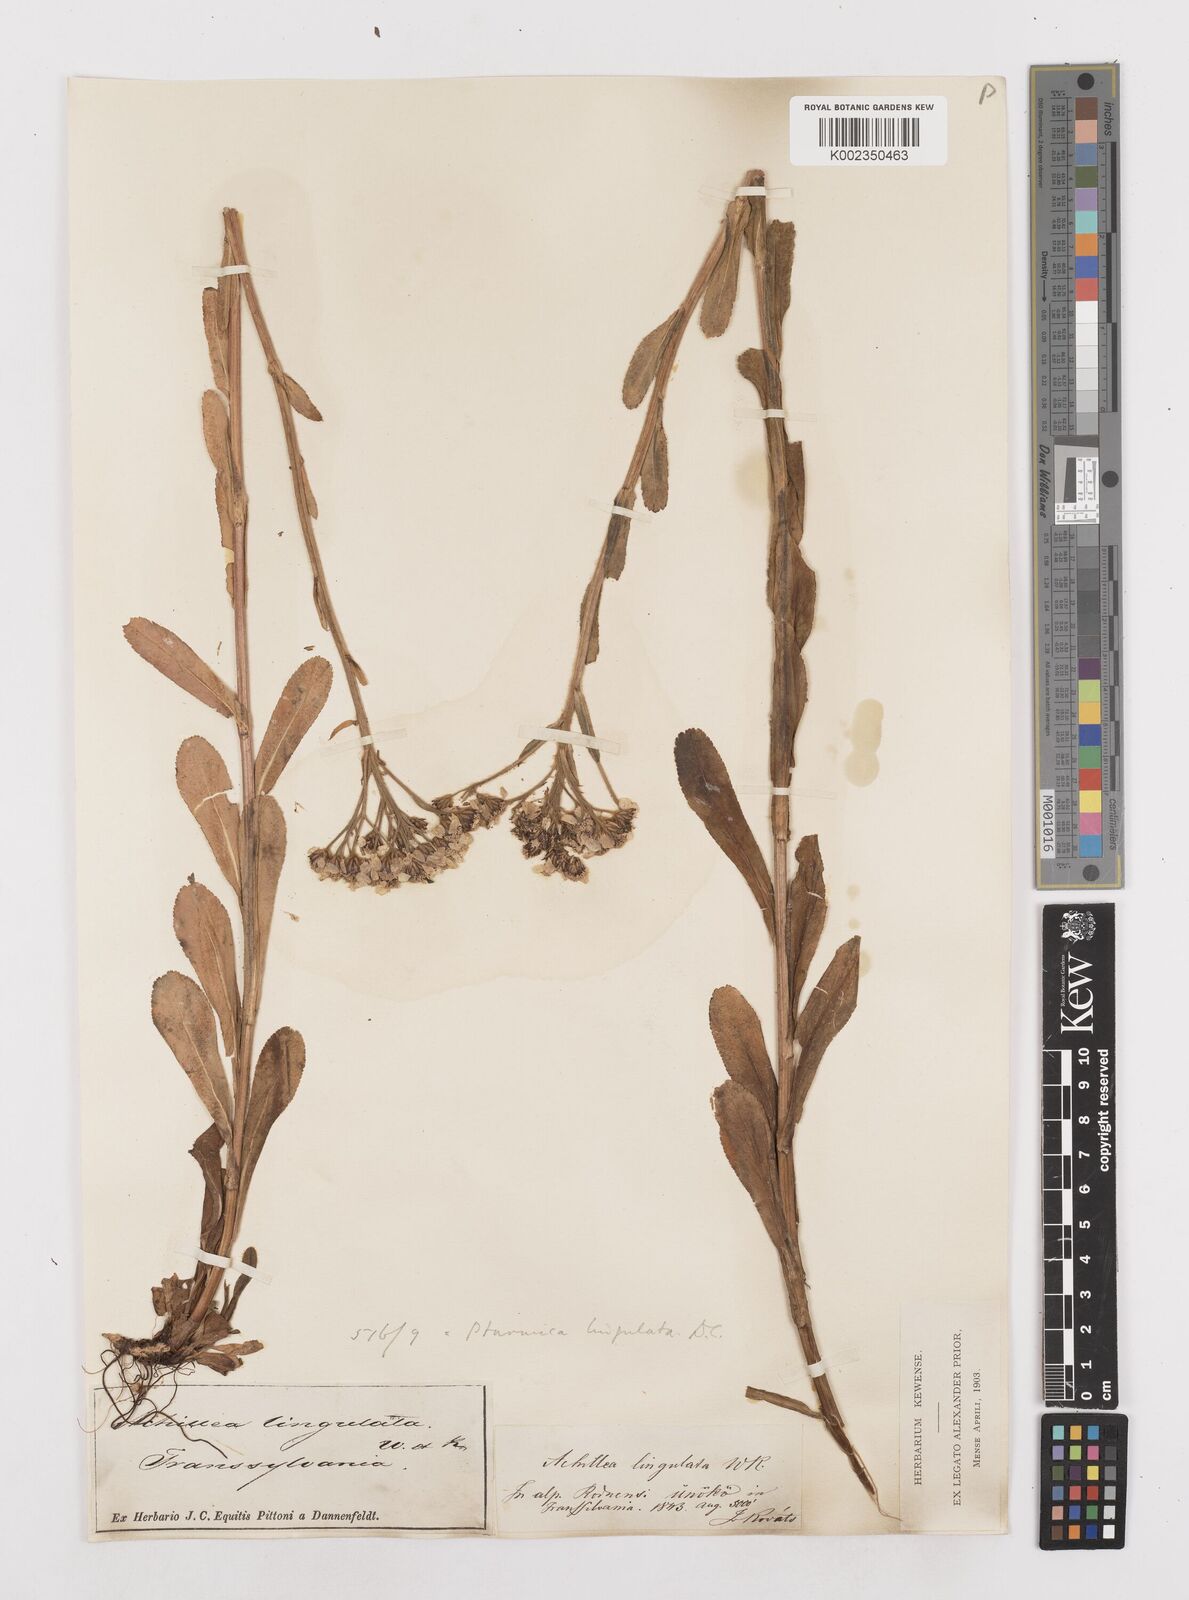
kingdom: Plantae
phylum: Tracheophyta
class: Magnoliopsida
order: Asterales
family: Asteraceae
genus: Achillea
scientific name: Achillea lingulata
